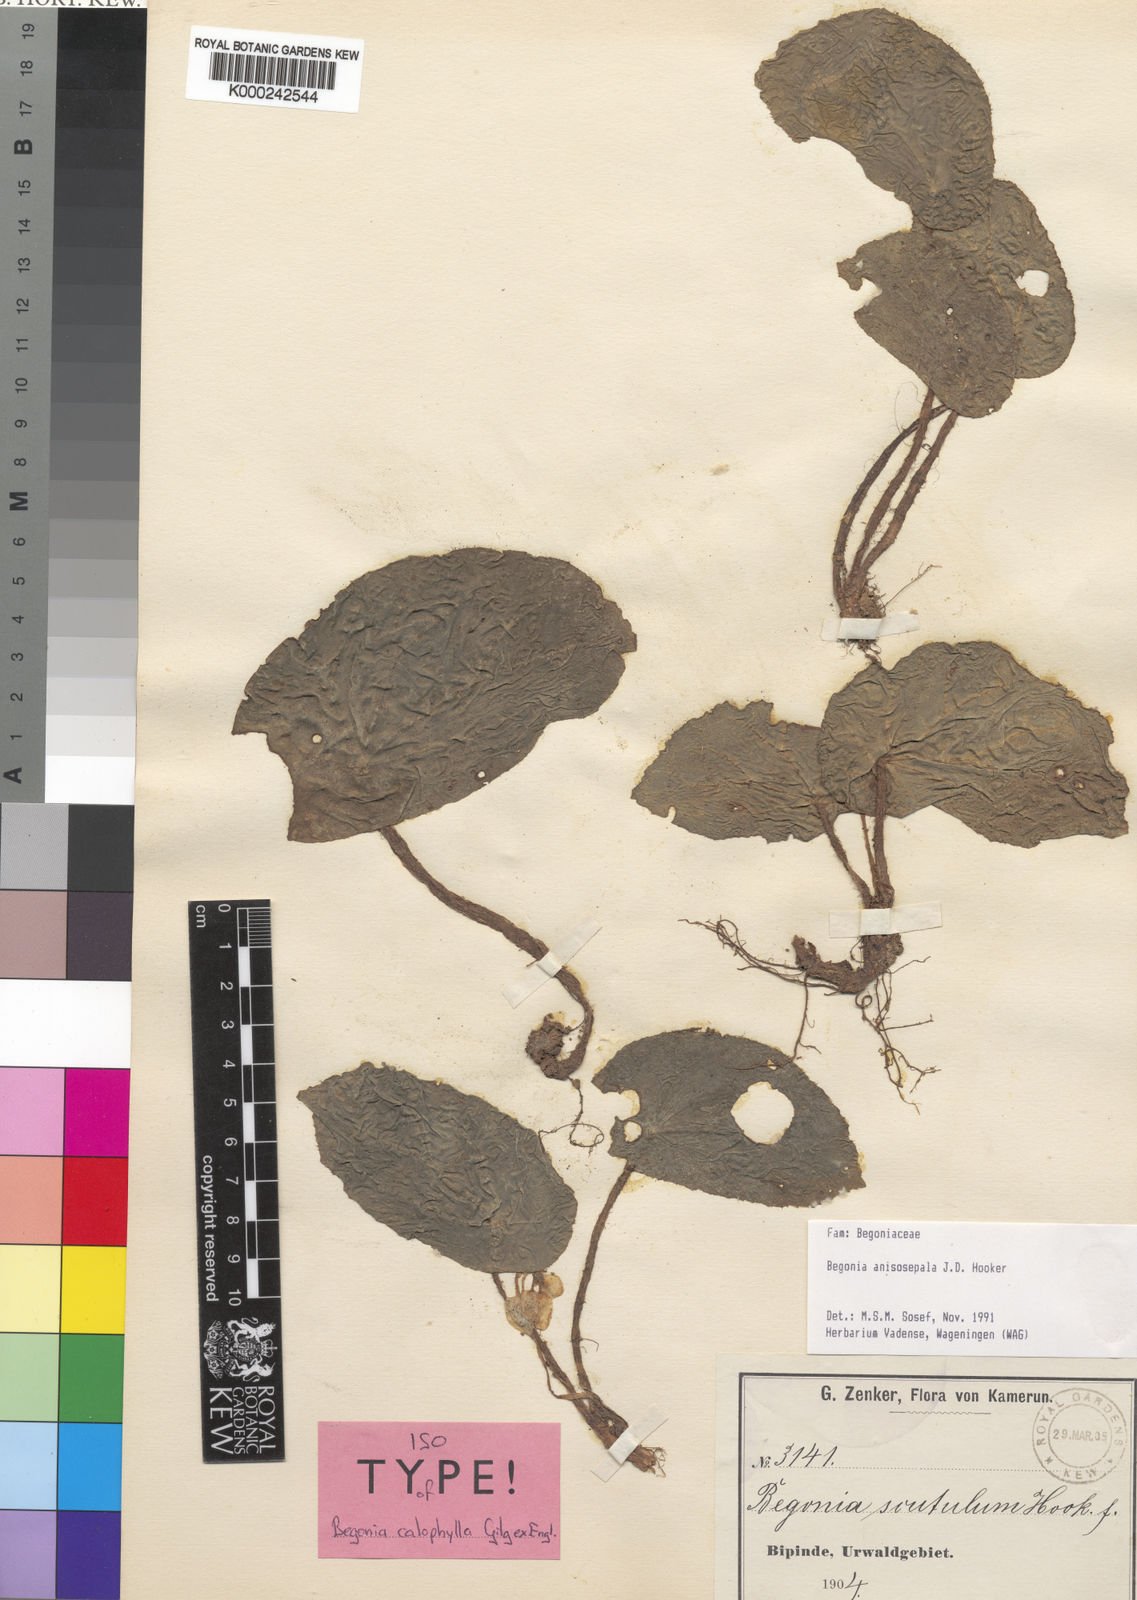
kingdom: Plantae
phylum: Tracheophyta
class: Magnoliopsida
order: Cucurbitales
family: Begoniaceae
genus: Begonia
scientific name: Begonia anisosepala
